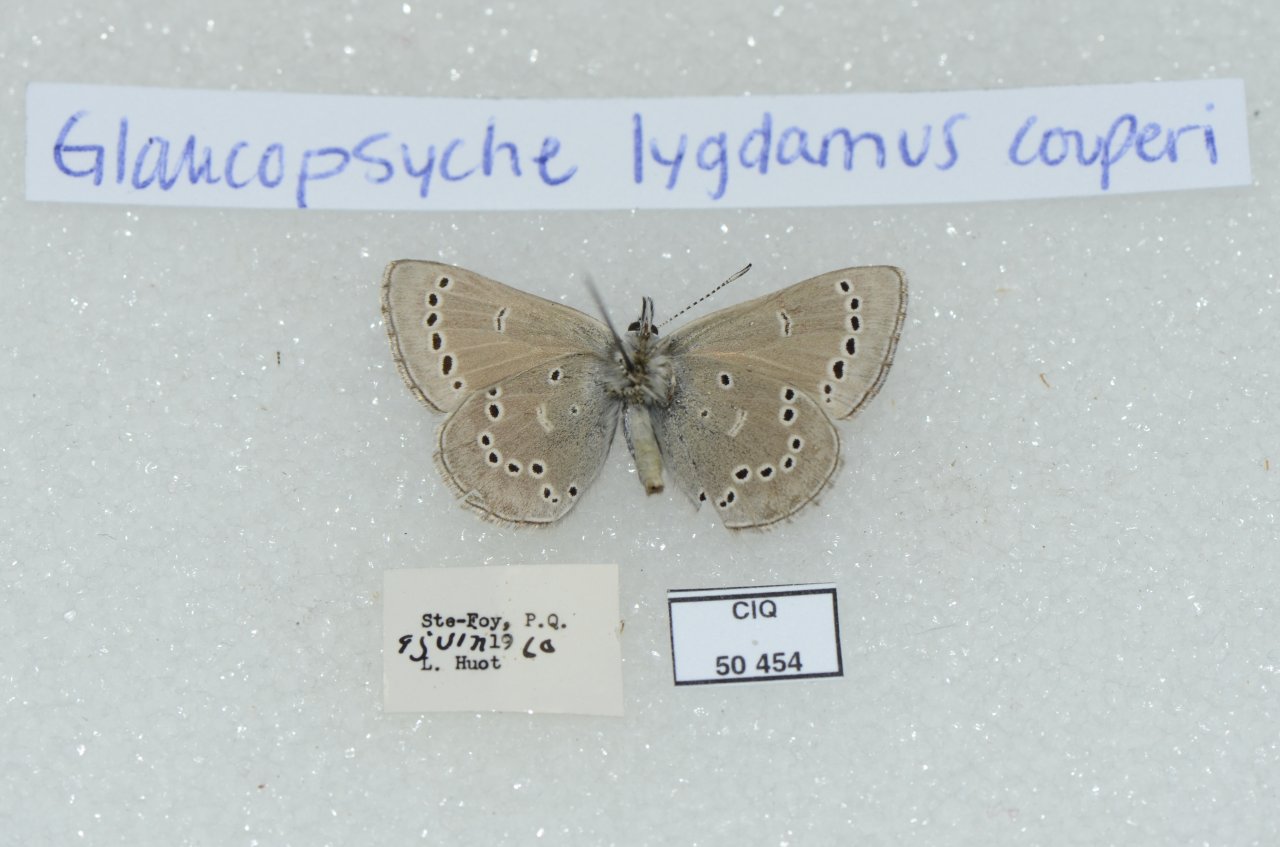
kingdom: Animalia
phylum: Arthropoda
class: Insecta
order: Lepidoptera
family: Lycaenidae
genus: Glaucopsyche
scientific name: Glaucopsyche lygdamus
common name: Silvery Blue
